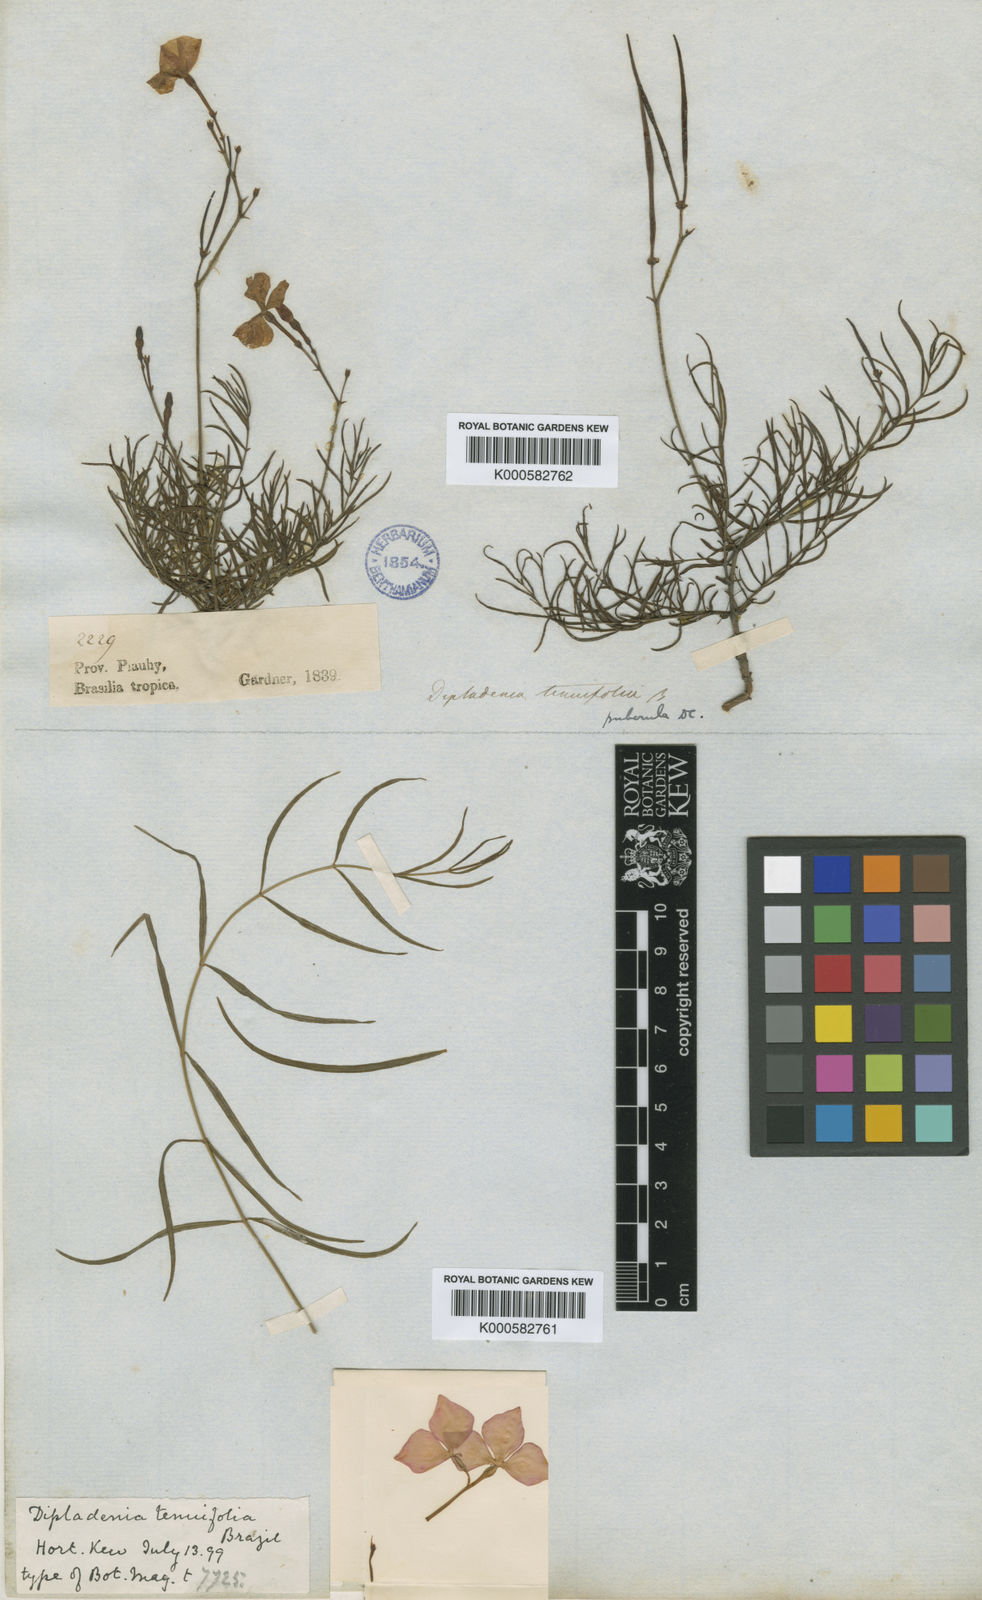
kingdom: Plantae
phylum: Tracheophyta
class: Magnoliopsida
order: Gentianales
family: Apocynaceae
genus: Mandevilla
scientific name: Mandevilla tenuifolia
